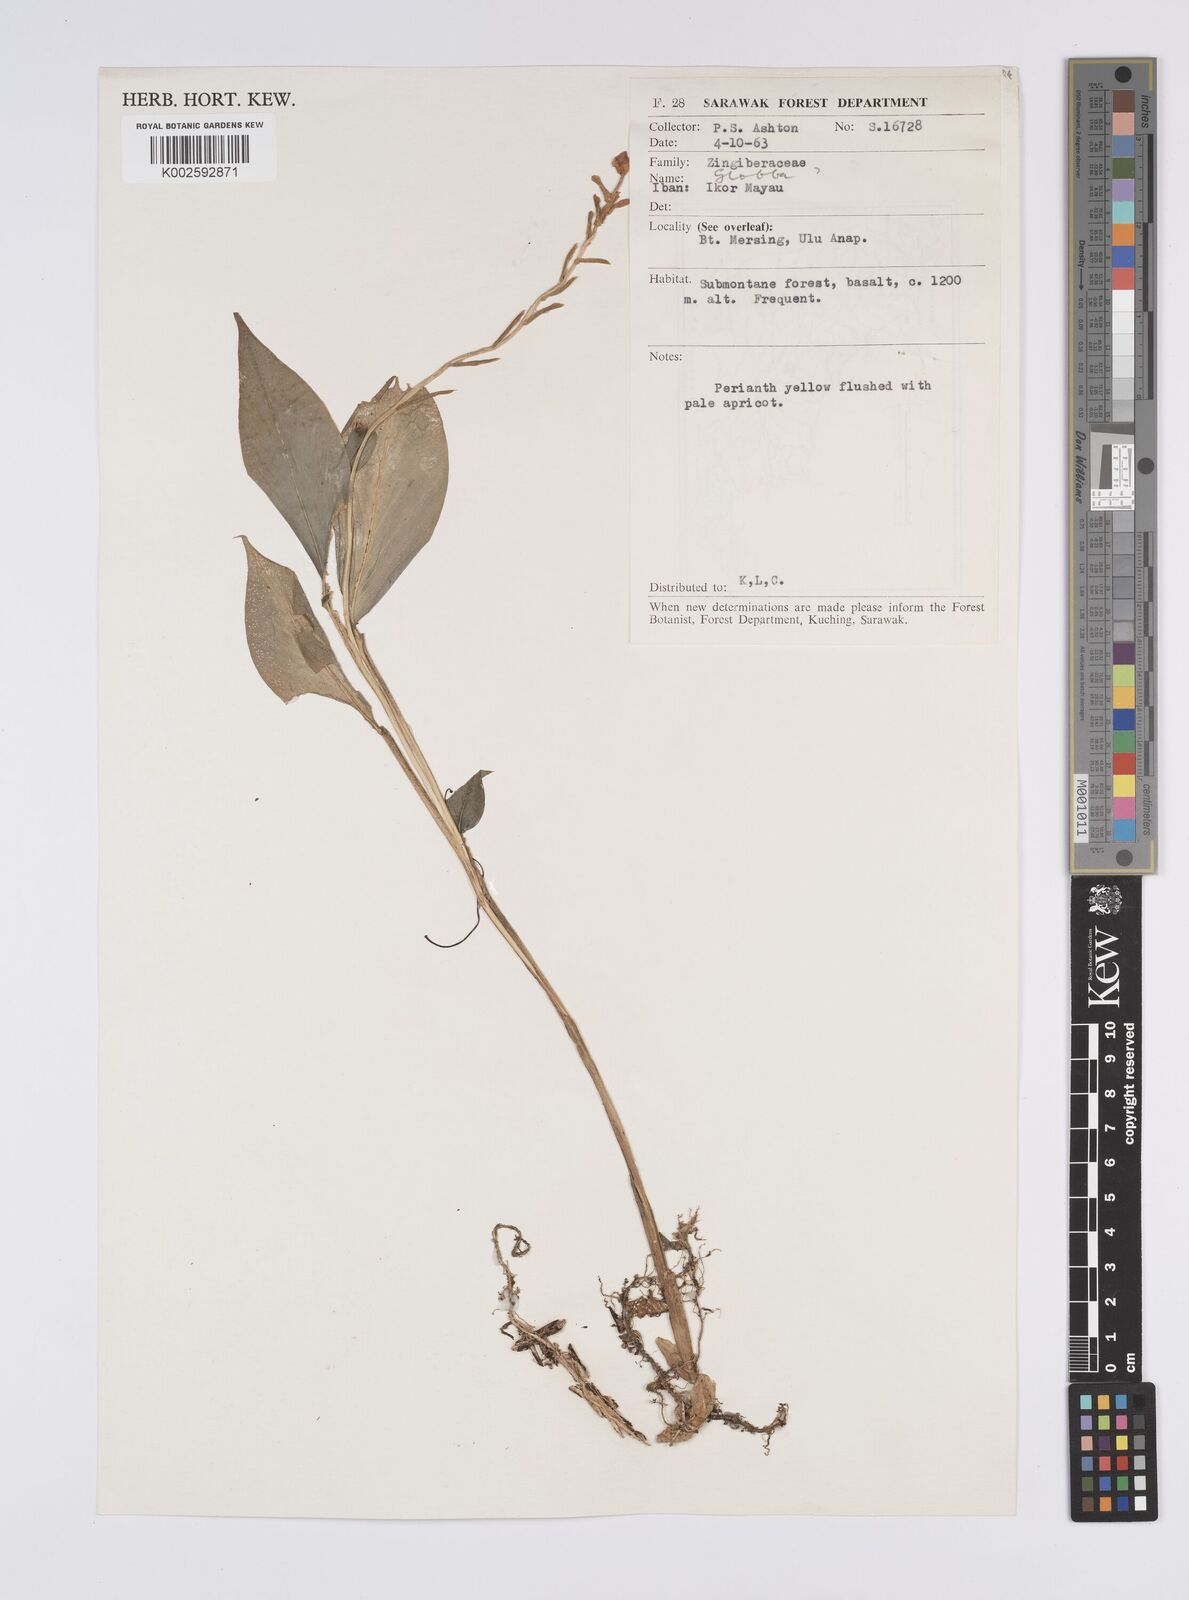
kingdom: Plantae
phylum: Tracheophyta
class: Liliopsida
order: Zingiberales
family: Zingiberaceae
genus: Globba
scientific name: Globba propinqua
